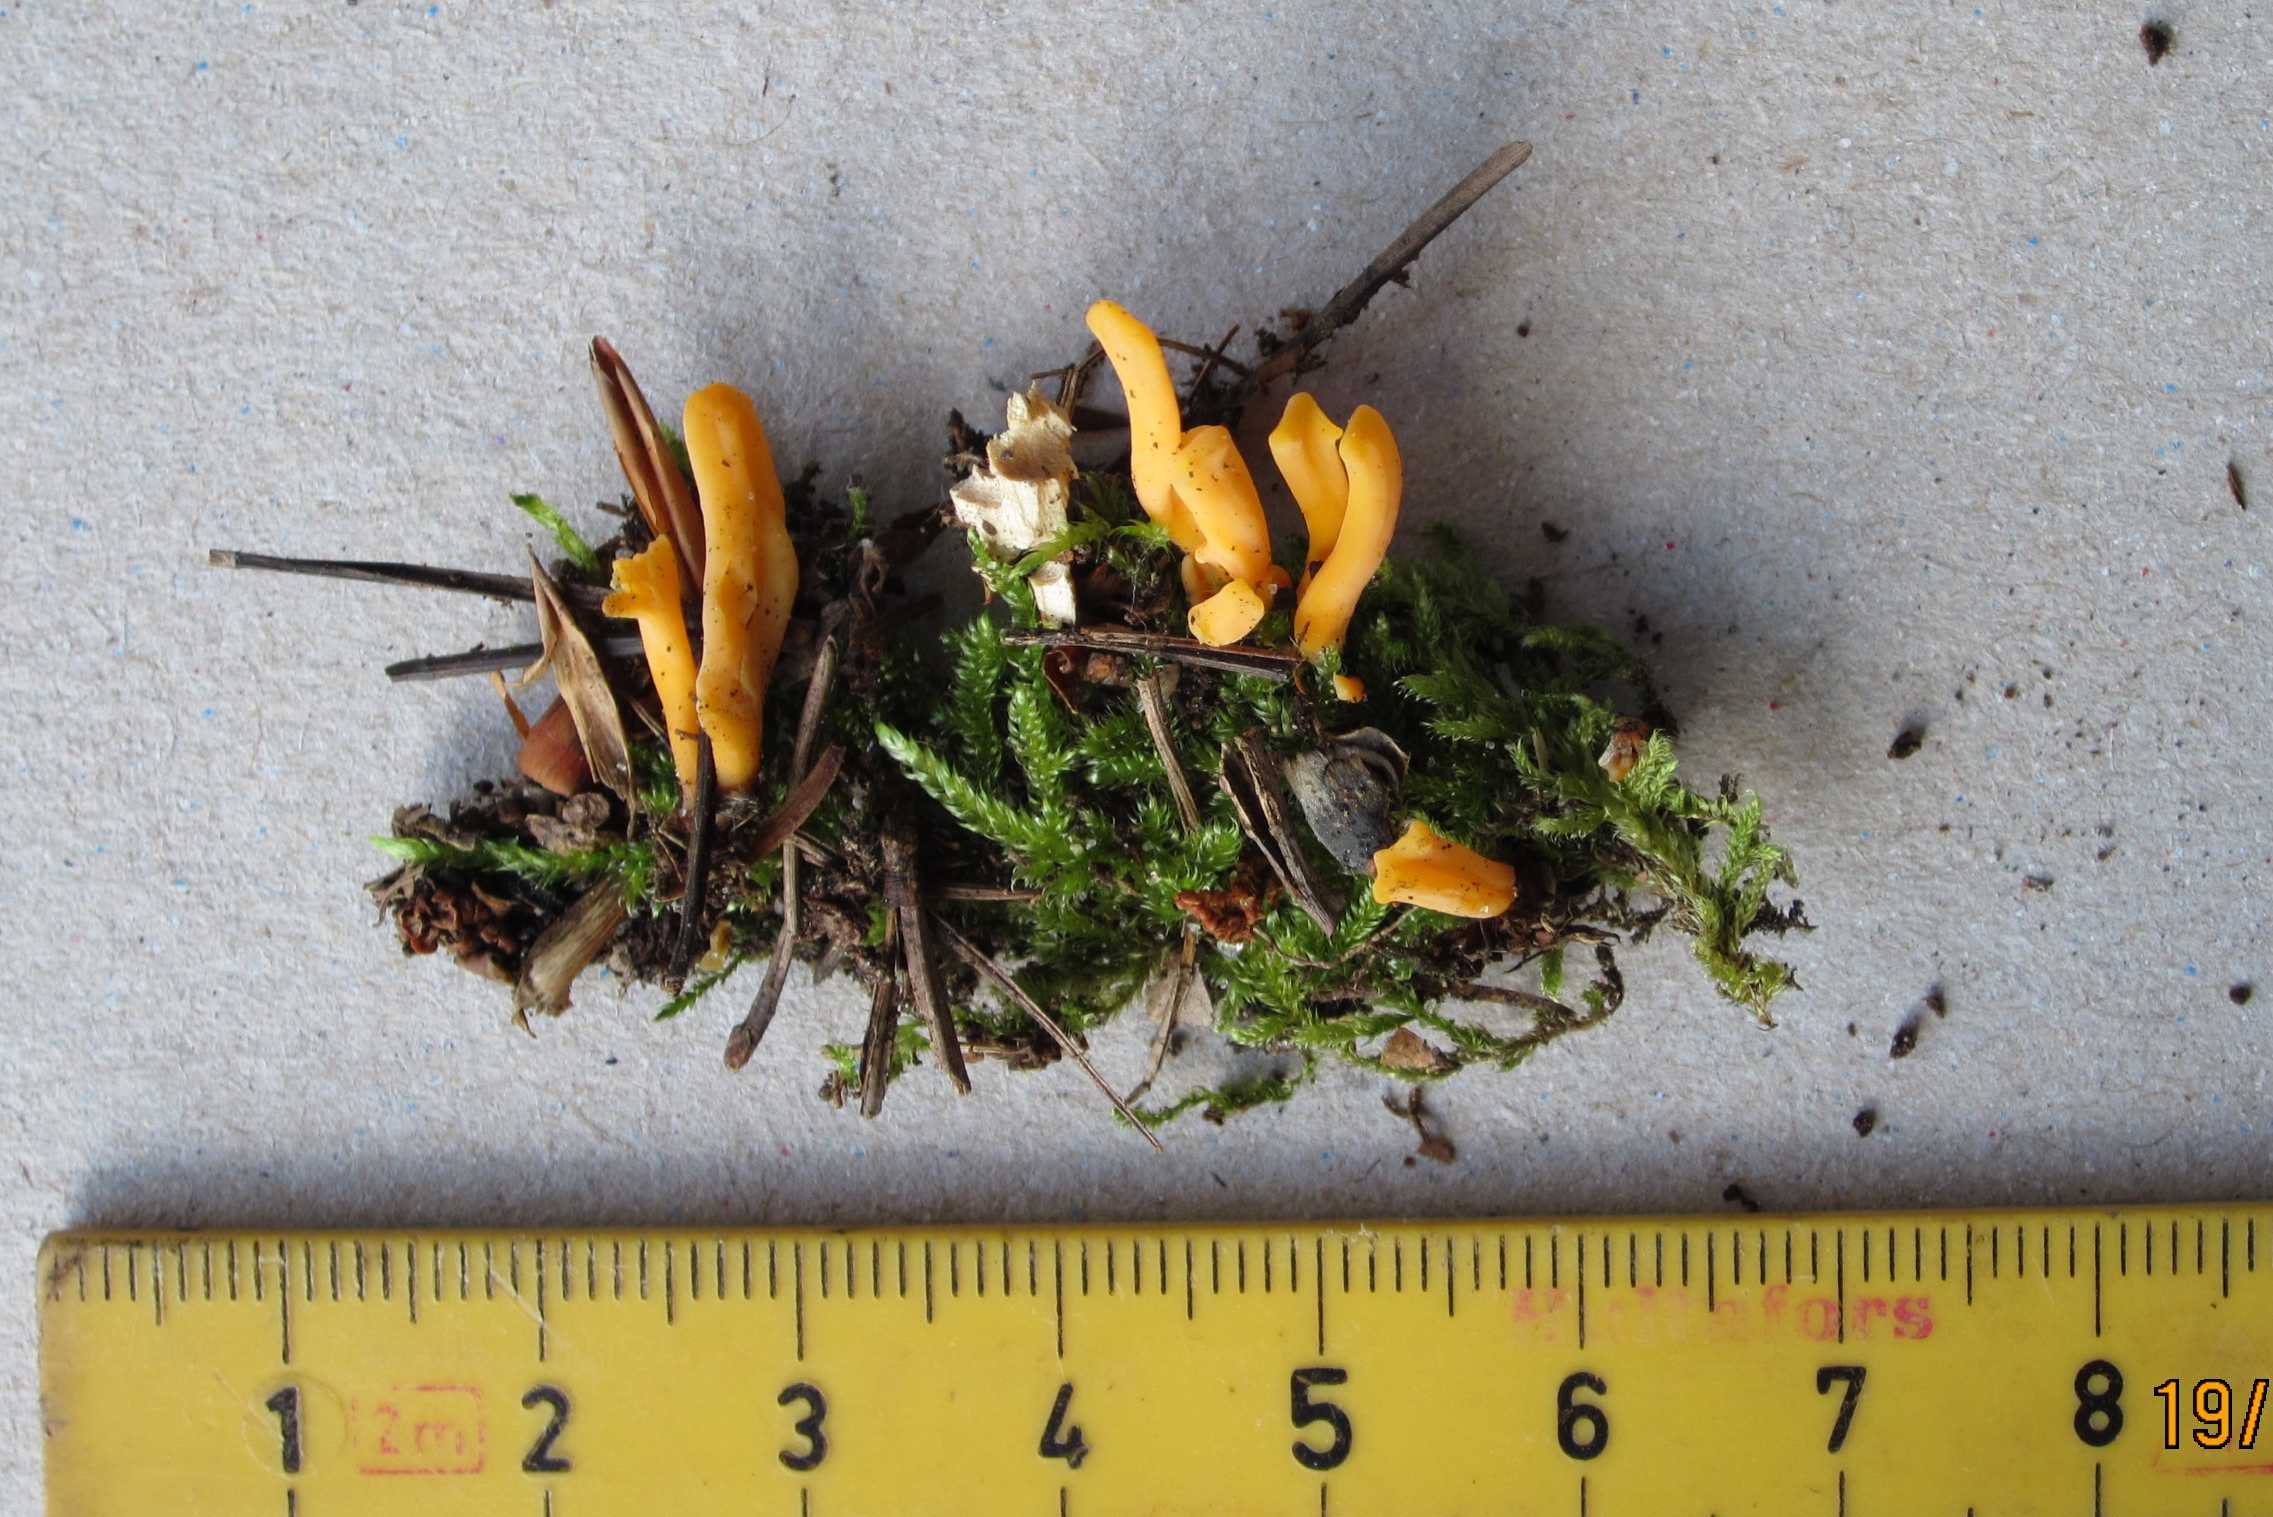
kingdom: Fungi
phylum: Basidiomycota
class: Dacrymycetes
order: Dacrymycetales
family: Dacrymycetaceae
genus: Calocera
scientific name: Calocera furcata
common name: fyrre-guldgaffel
